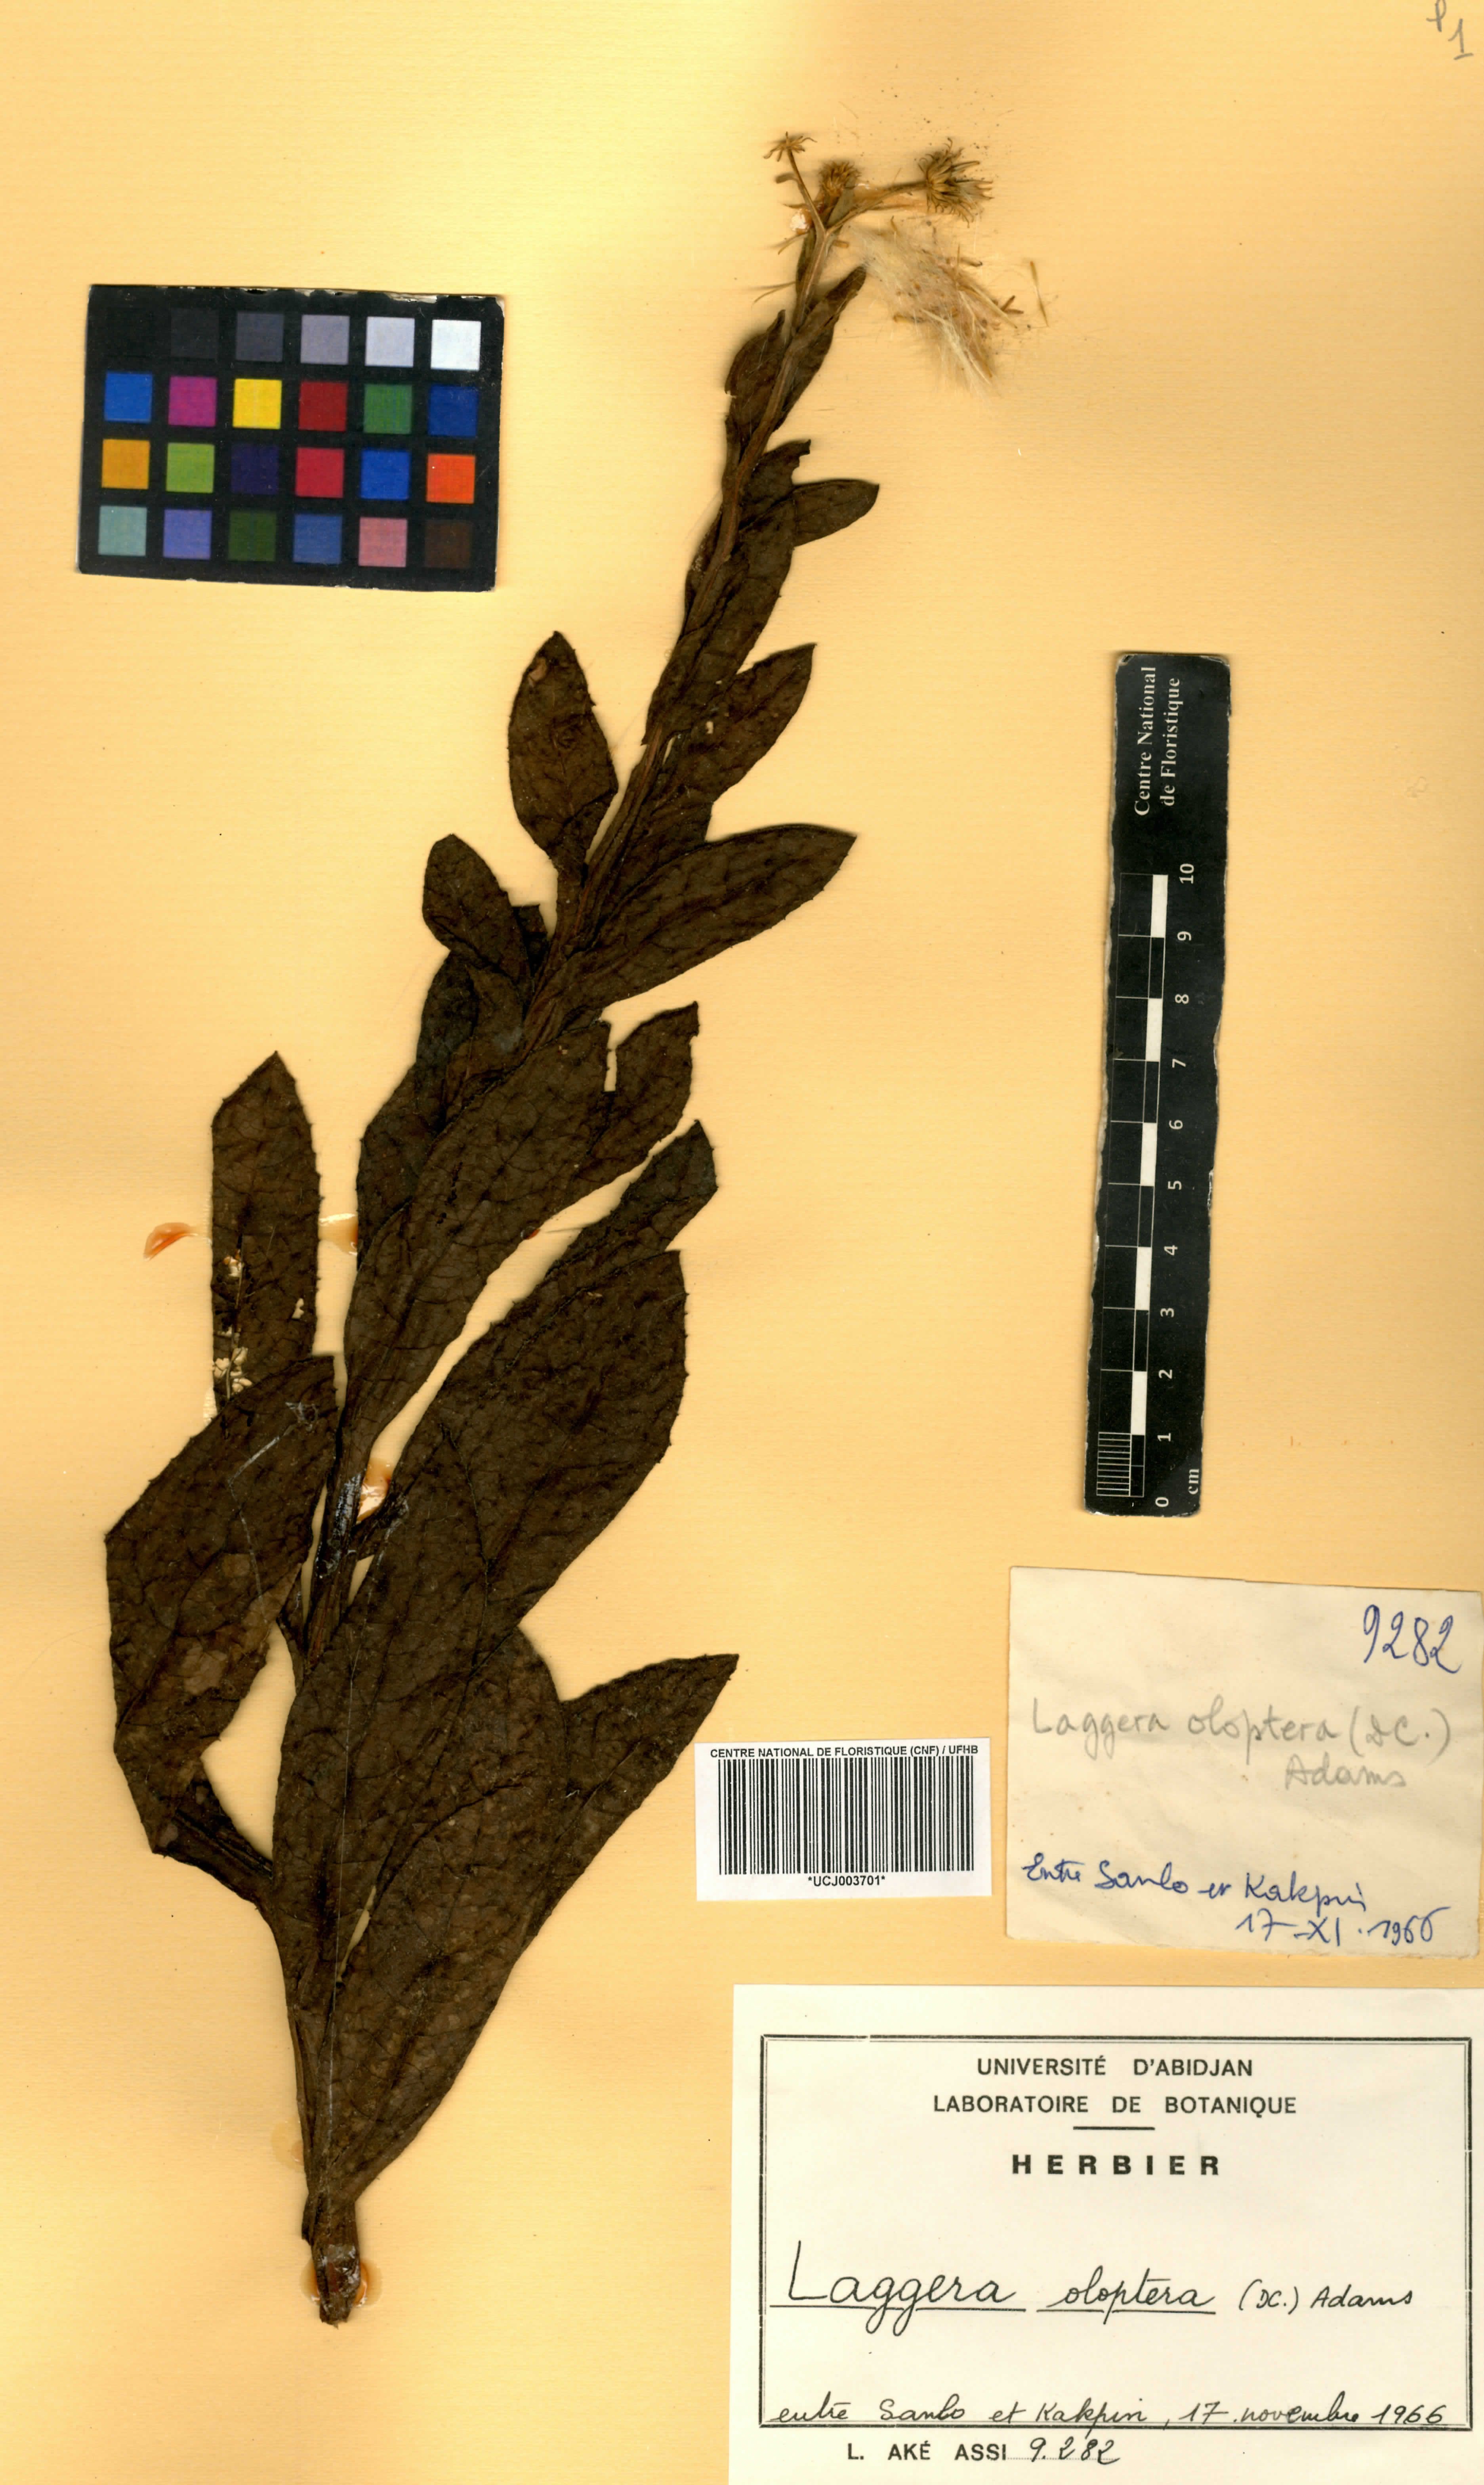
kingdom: Plantae
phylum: Tracheophyta
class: Magnoliopsida
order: Asterales
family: Asteraceae
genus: Laggera
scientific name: Laggera oloptera
